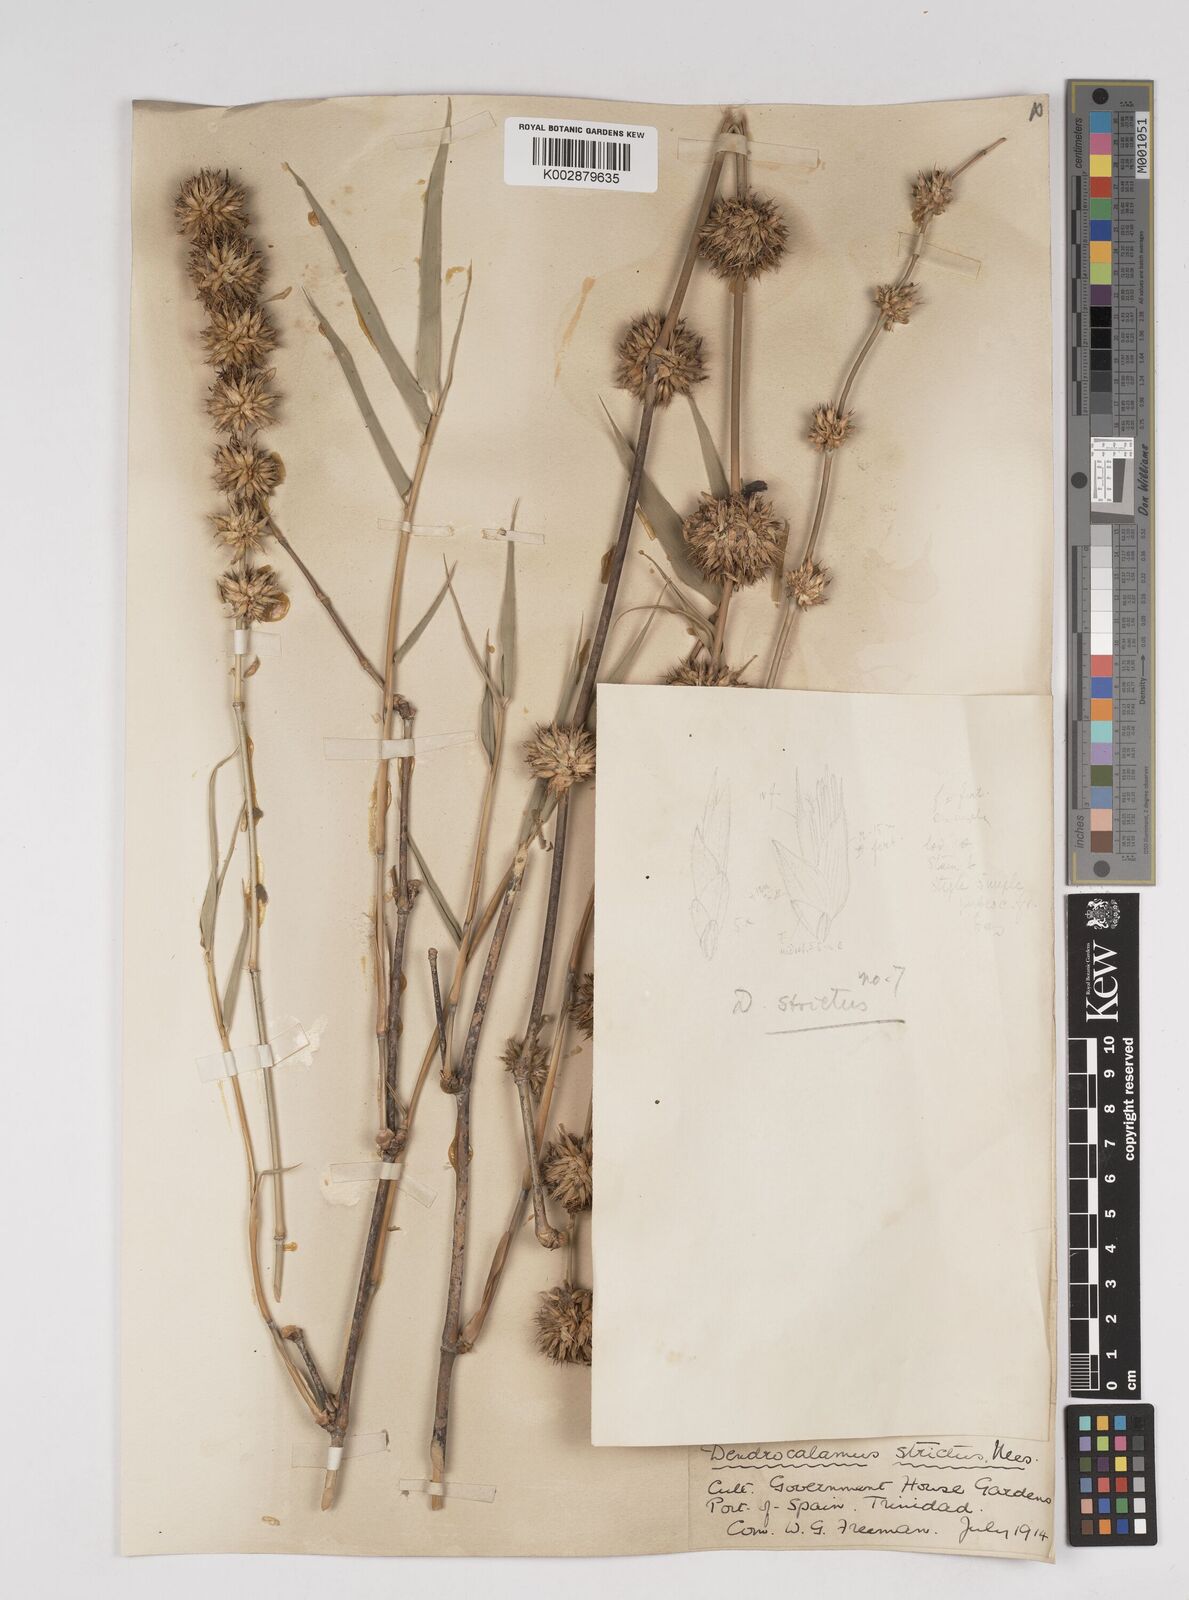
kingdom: Plantae
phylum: Tracheophyta
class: Liliopsida
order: Poales
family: Poaceae
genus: Dendrocalamus
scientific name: Dendrocalamus strictus
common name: Male bamboo
